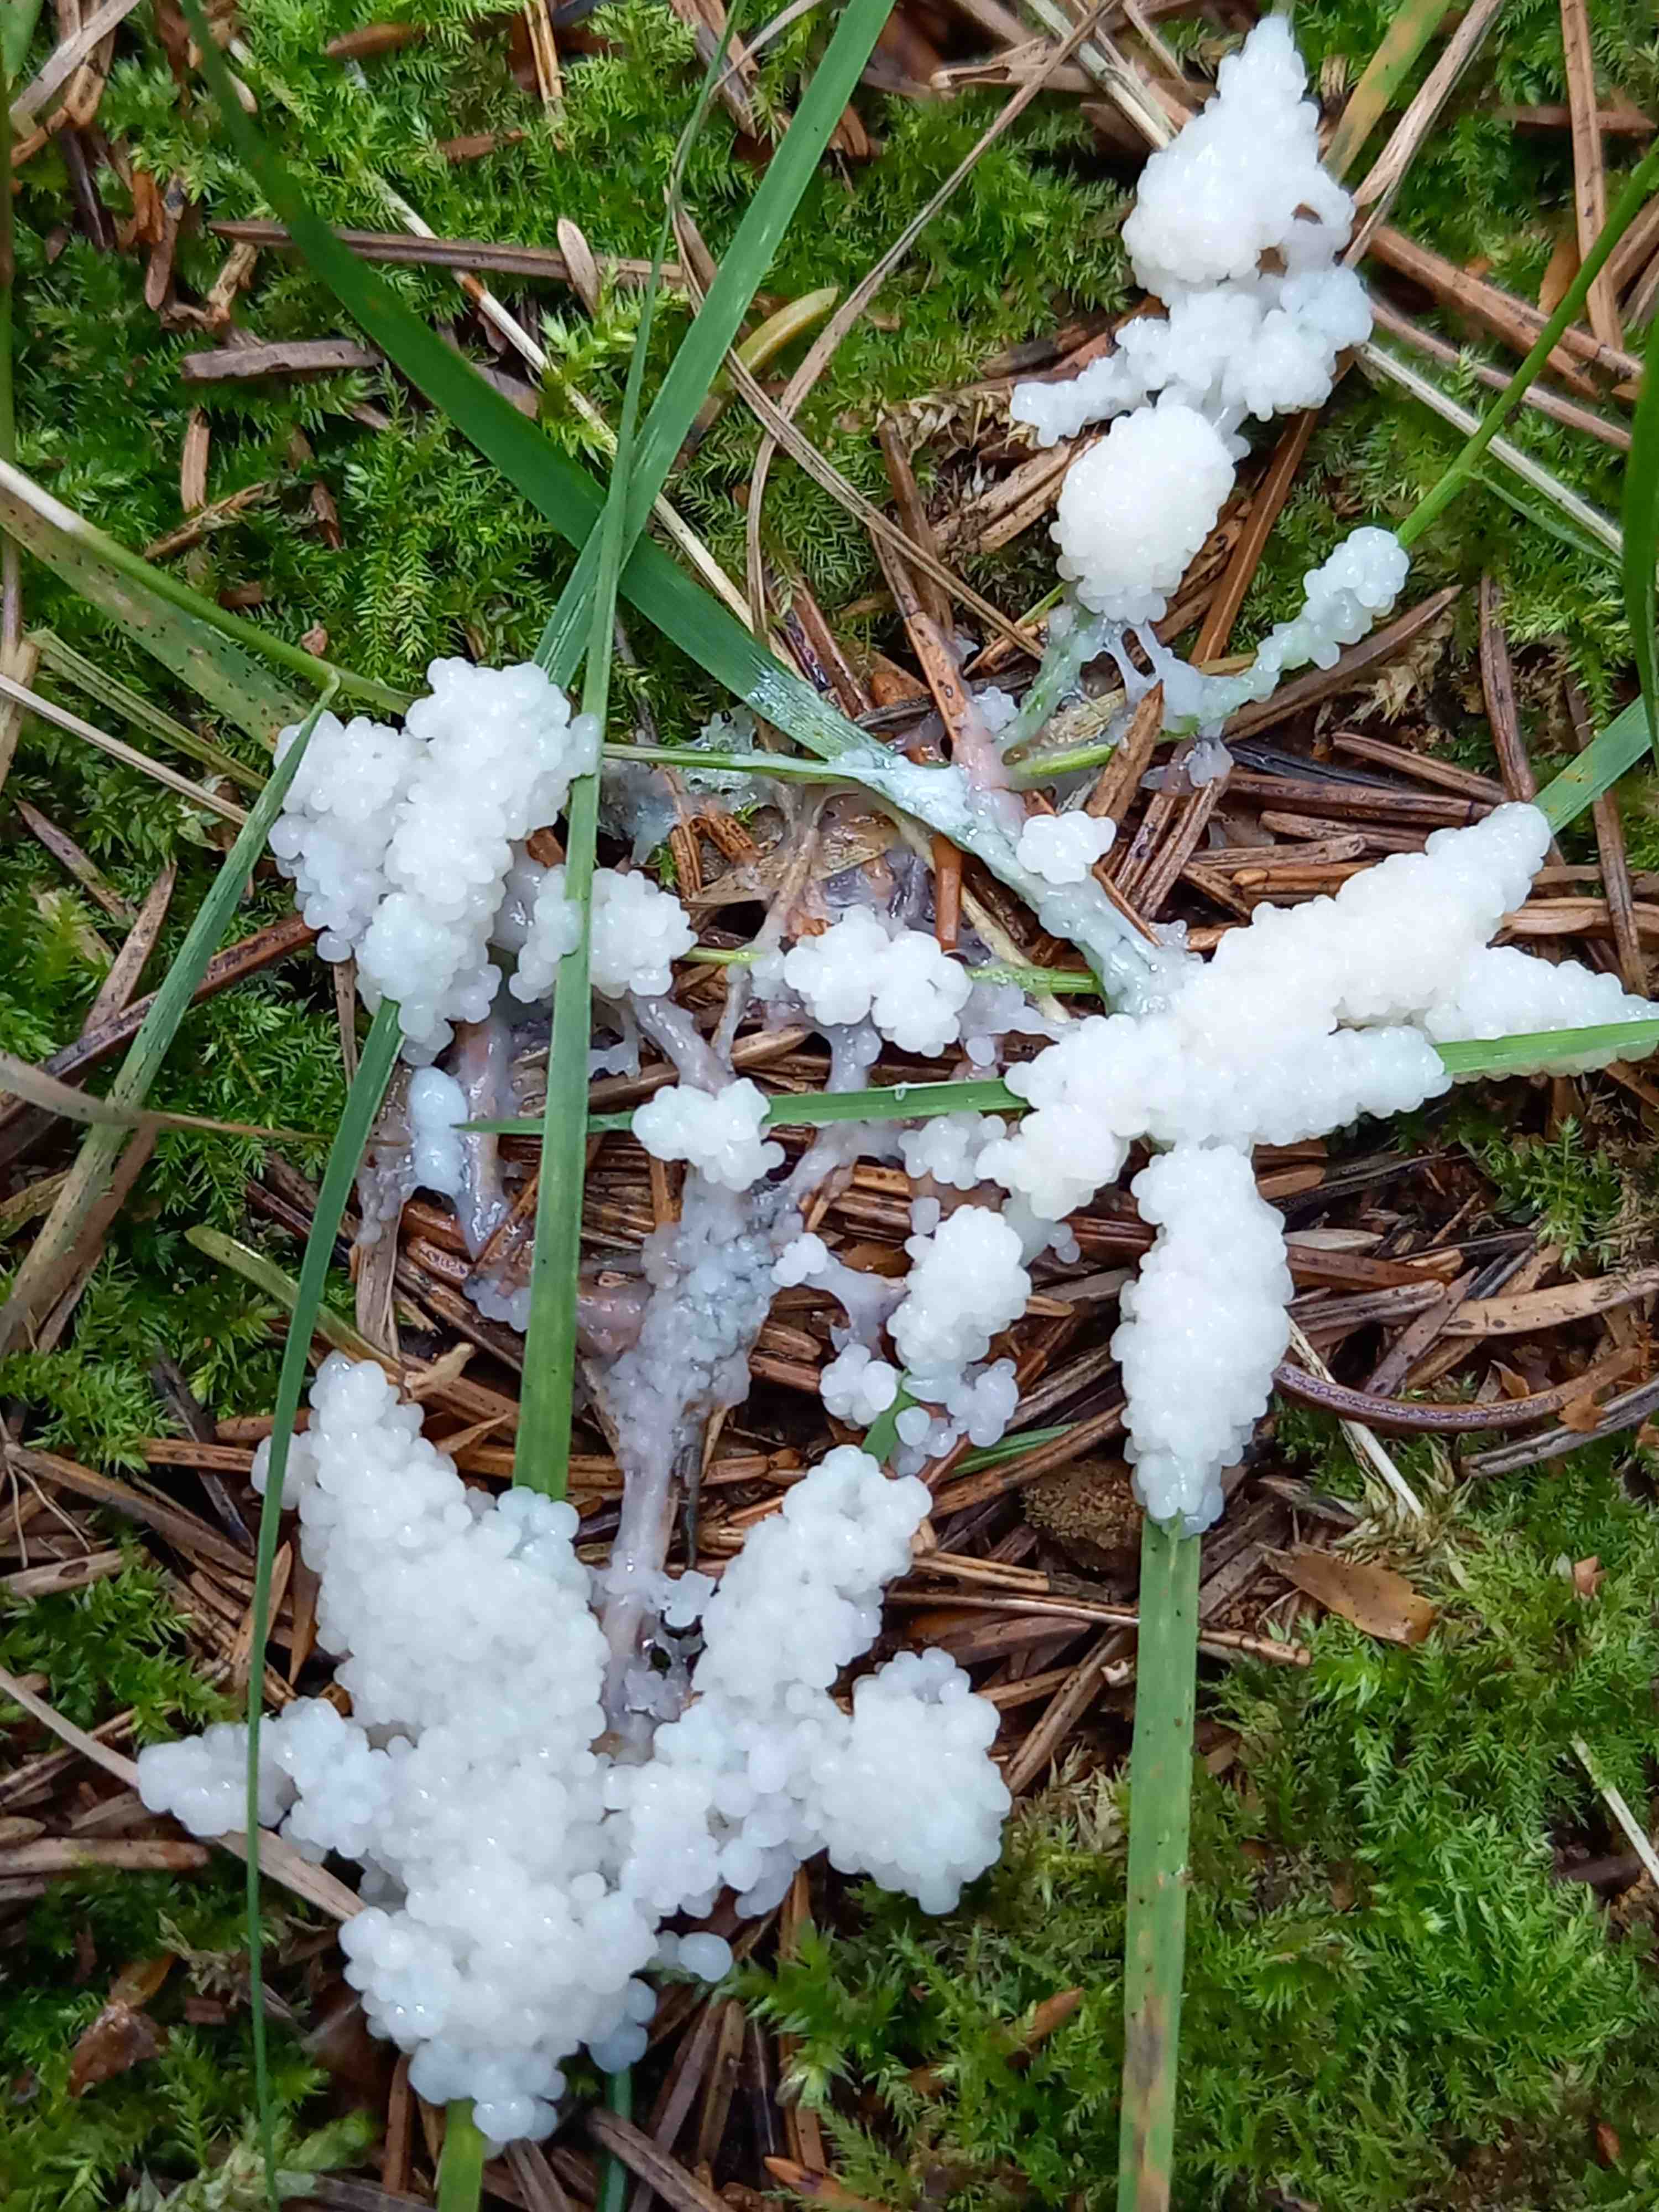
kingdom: Protozoa
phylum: Mycetozoa
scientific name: Mycetozoa
